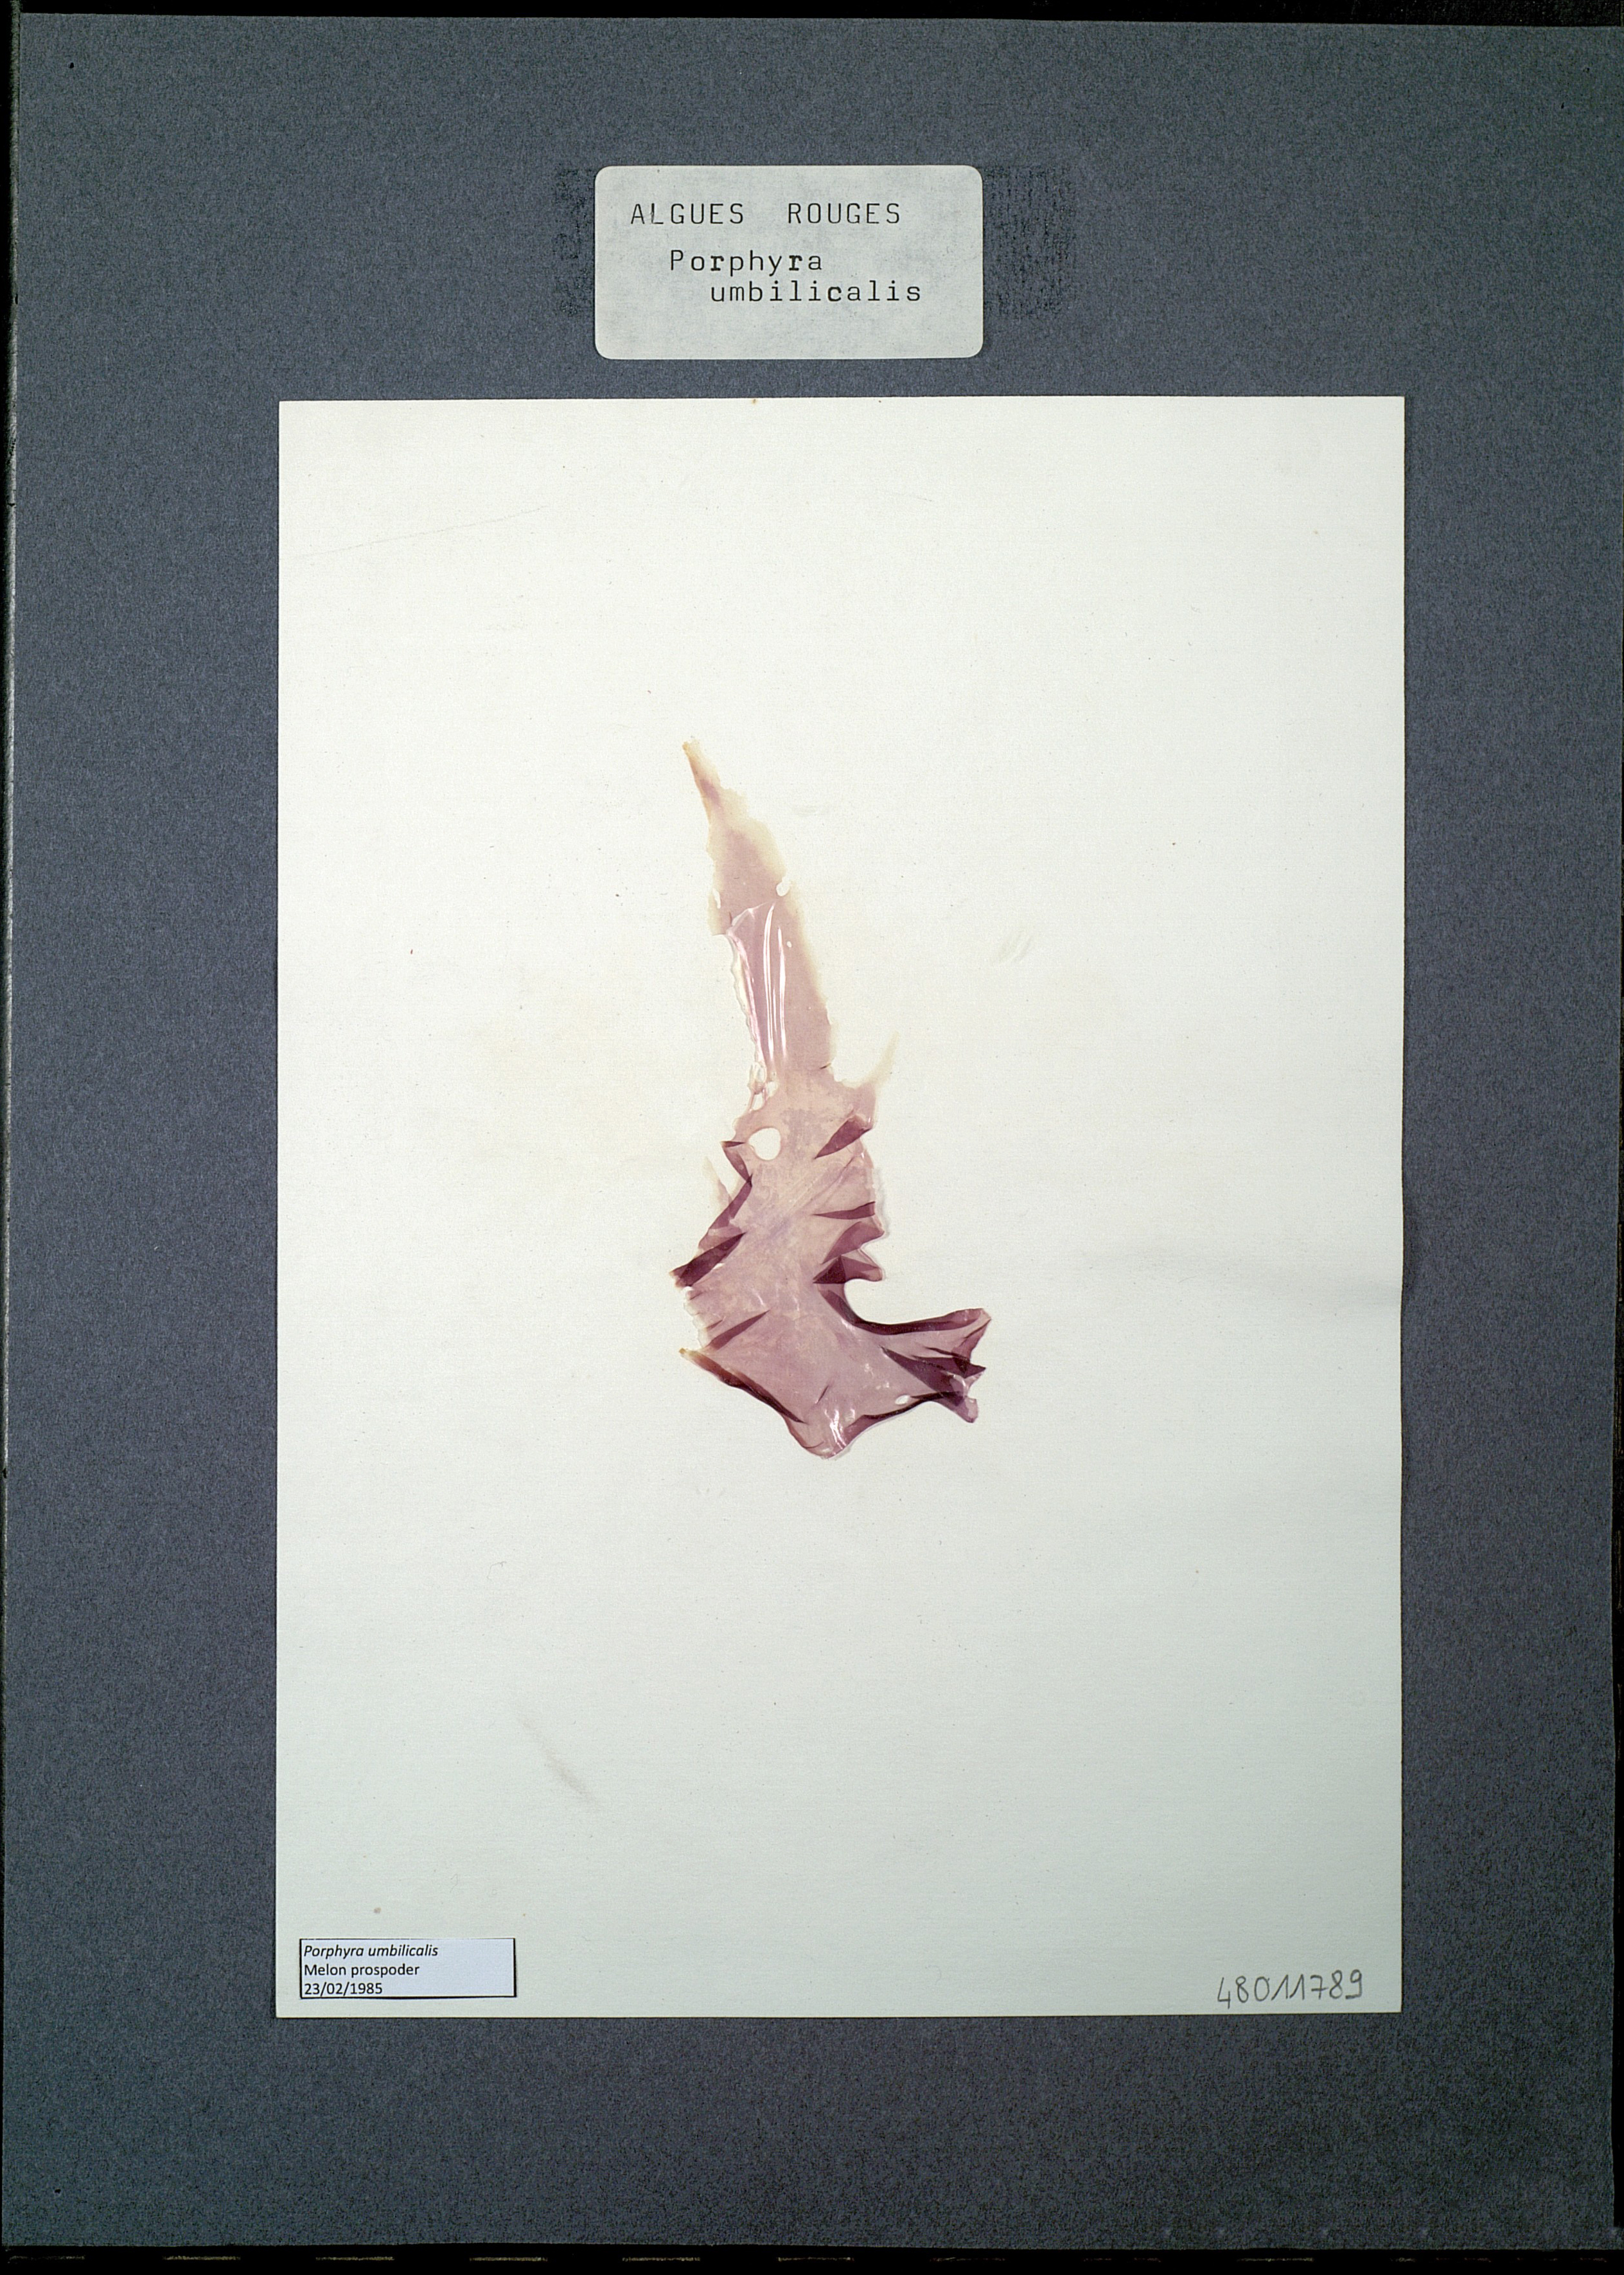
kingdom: Plantae
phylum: Rhodophyta
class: Bangiophyceae
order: Bangiales
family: Bangiaceae
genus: Porphyra
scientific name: Porphyra umbilicalis
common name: Purple laver
